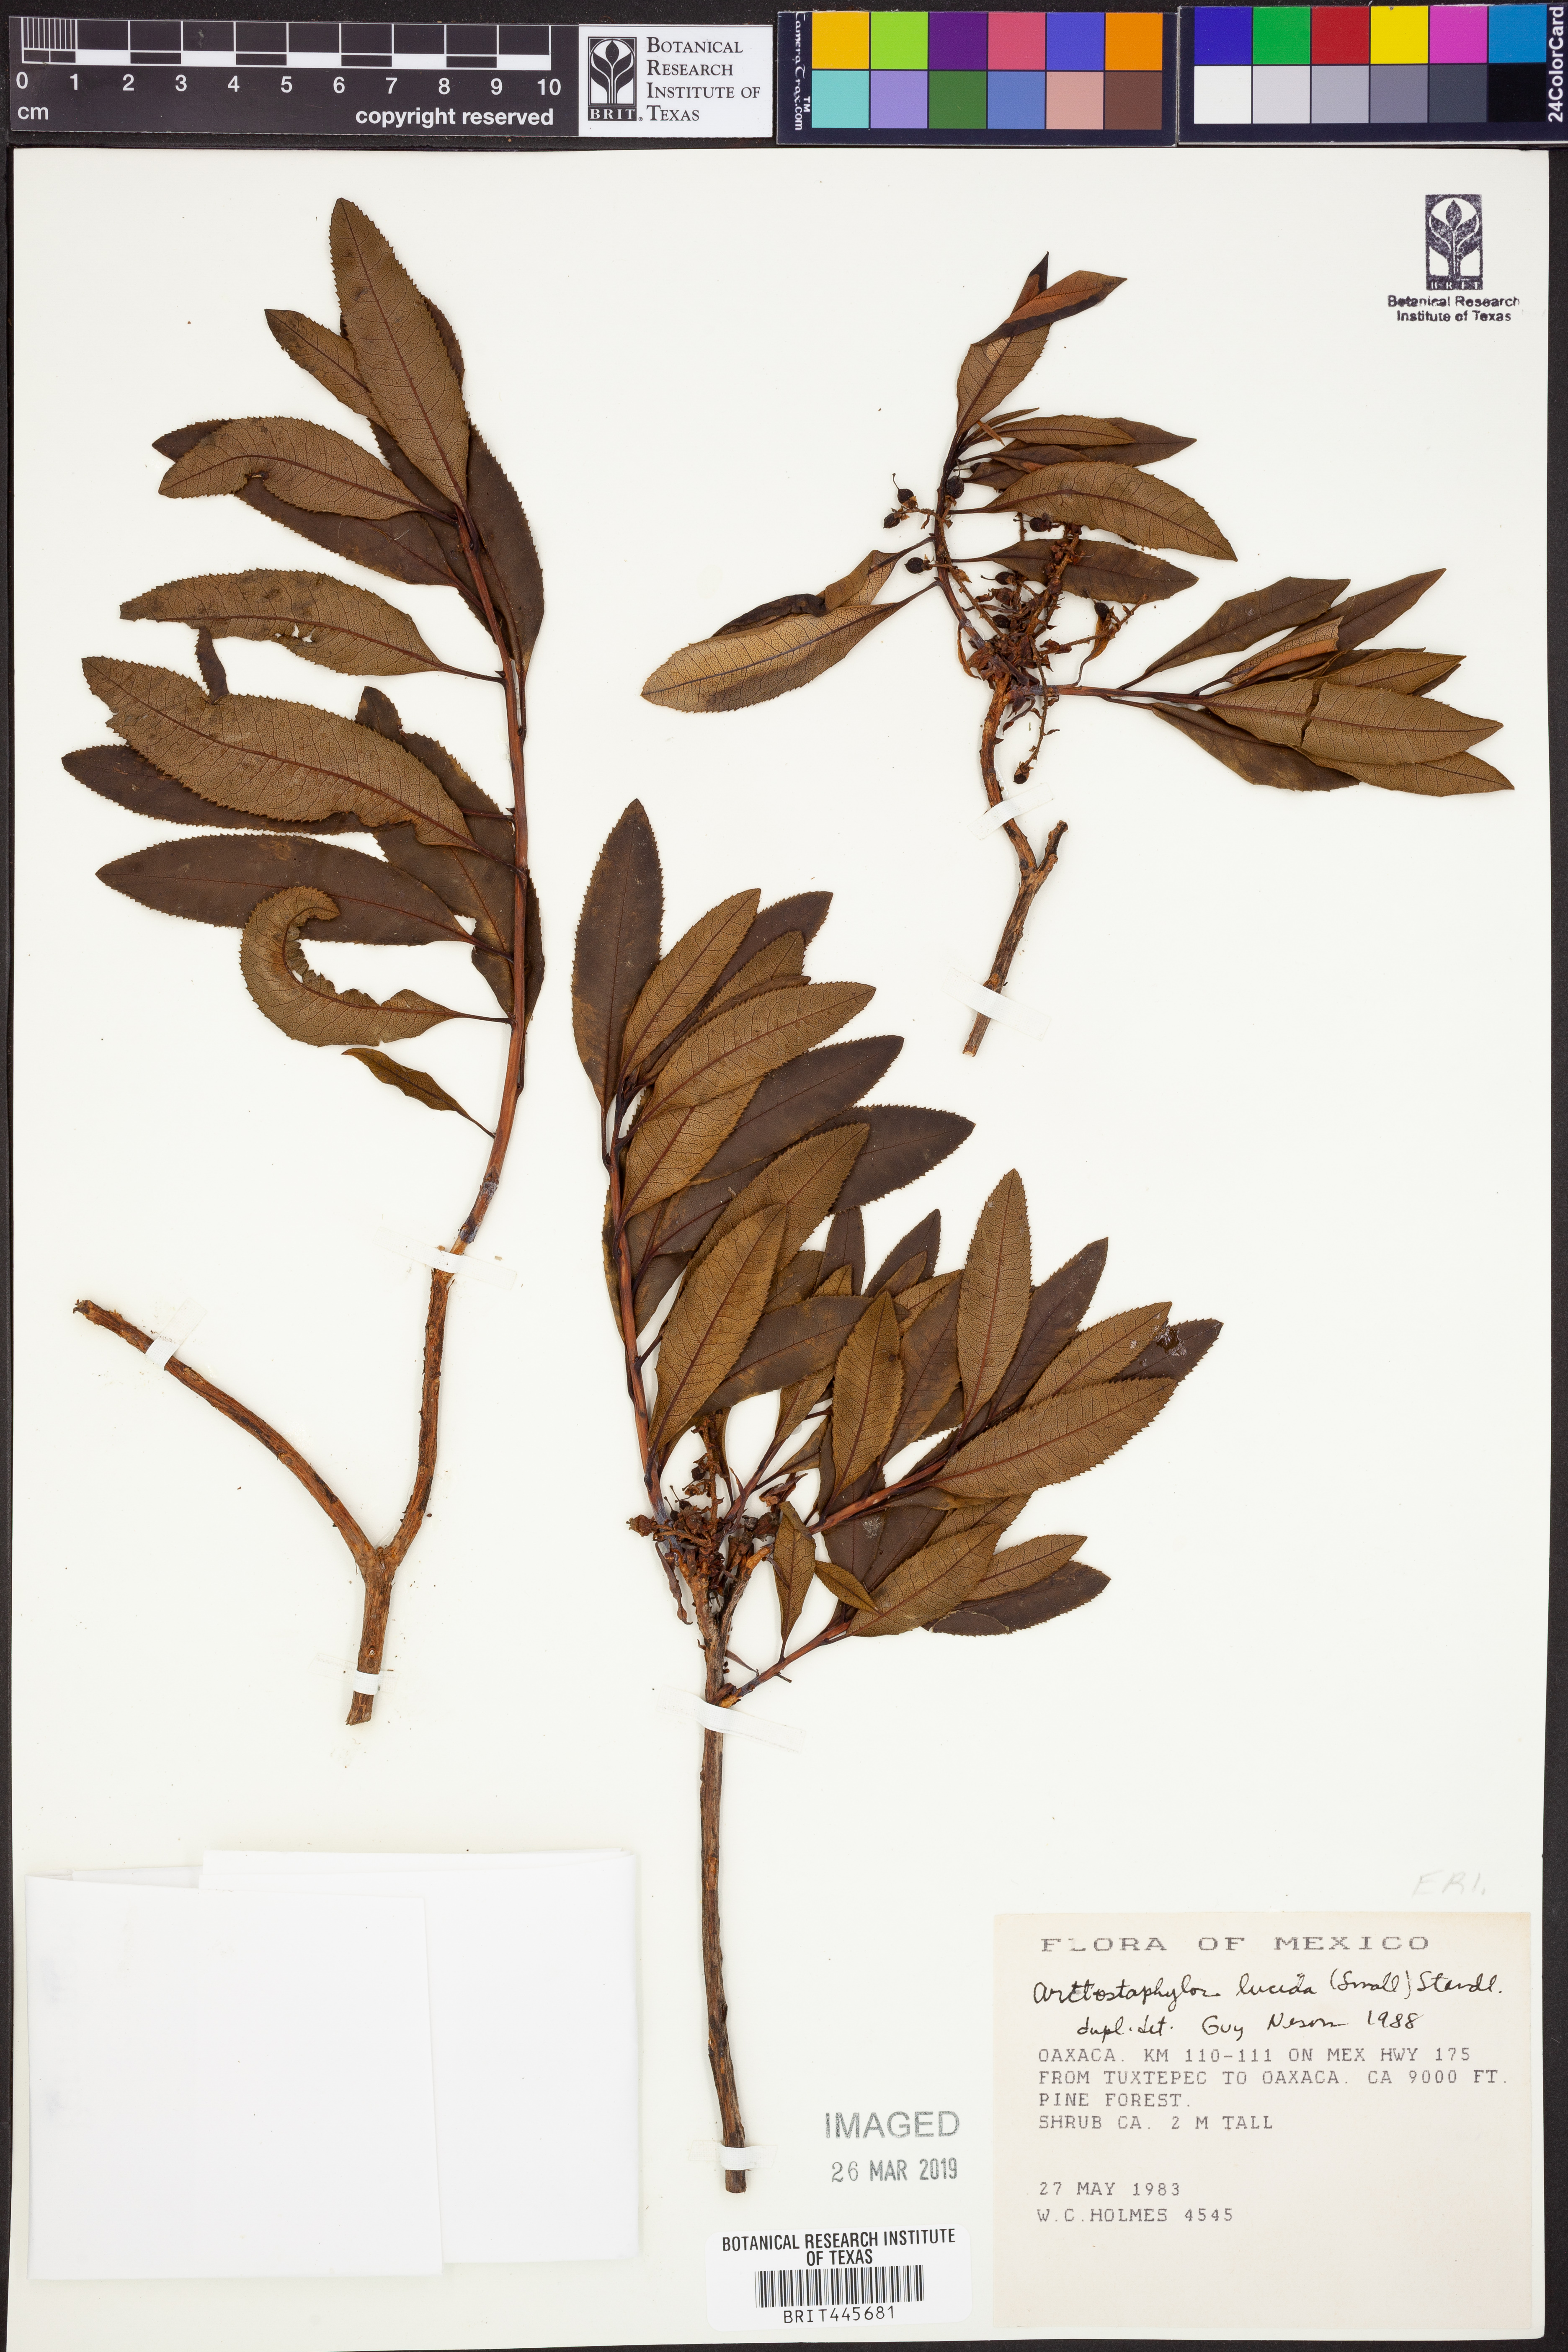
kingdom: Plantae
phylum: Tracheophyta
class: Magnoliopsida
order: Ericales
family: Ericaceae
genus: Comarostaphylis
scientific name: Comarostaphylis discolor
